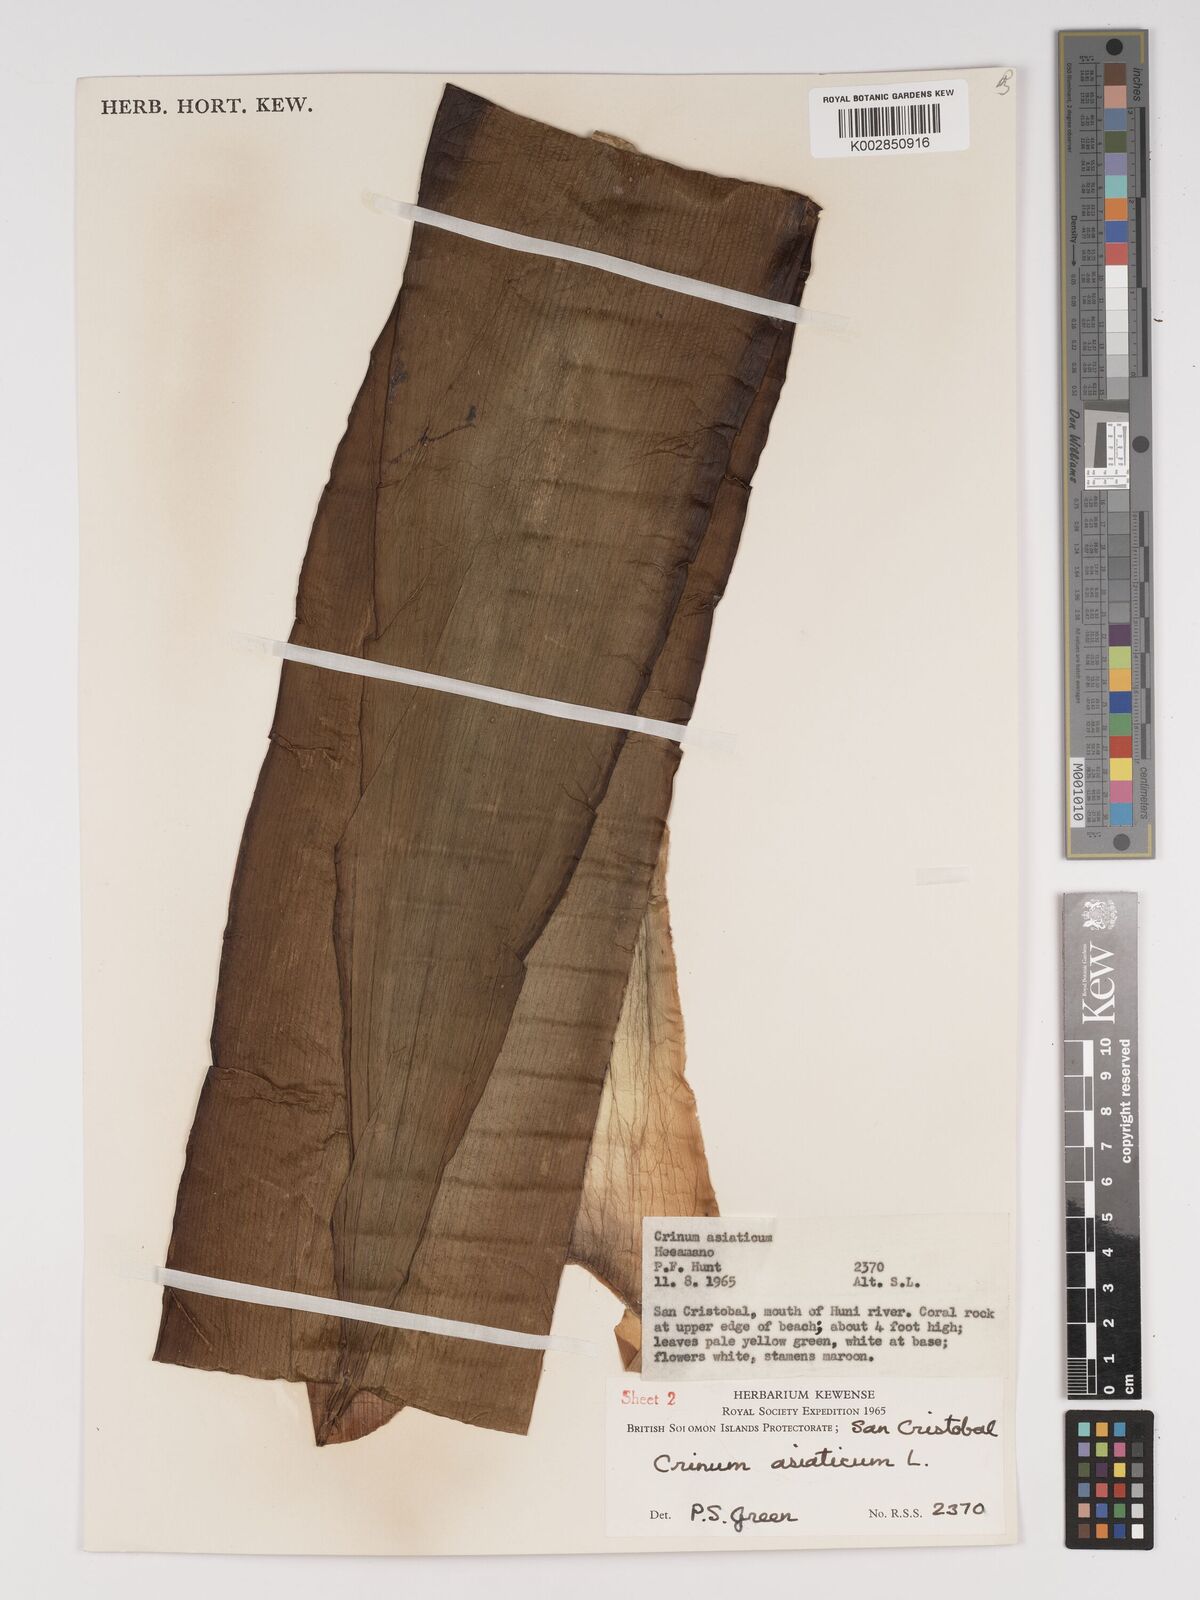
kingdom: Plantae
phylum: Tracheophyta
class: Liliopsida
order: Asparagales
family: Amaryllidaceae
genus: Crinum
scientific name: Crinum asiaticum
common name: Poisonbulb
